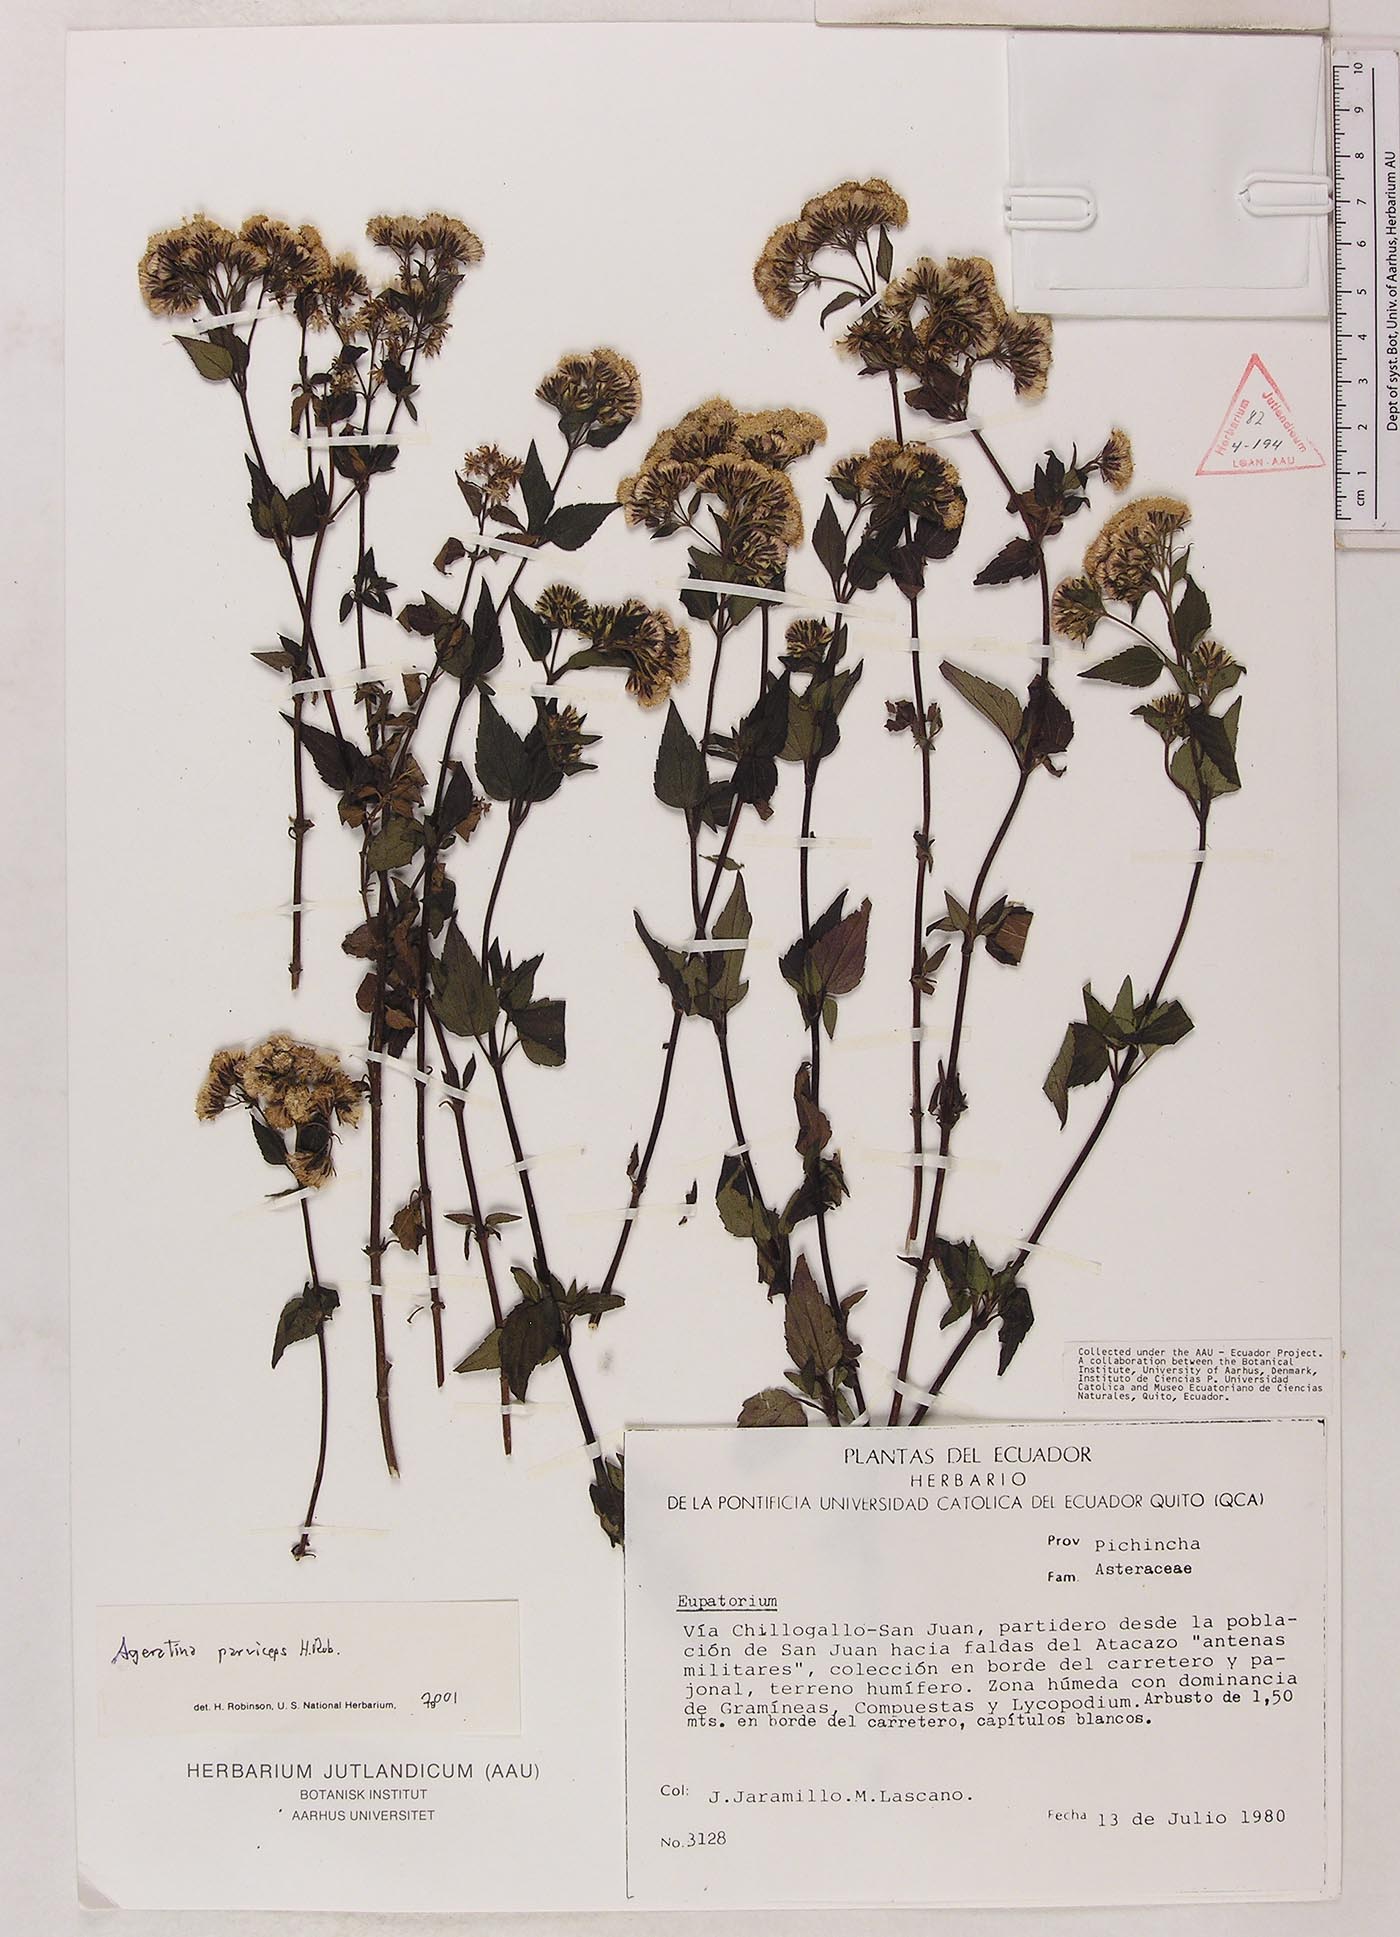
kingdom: Plantae
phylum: Tracheophyta
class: Magnoliopsida
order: Asterales
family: Asteraceae
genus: Ageratina
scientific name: Ageratina parviceps
